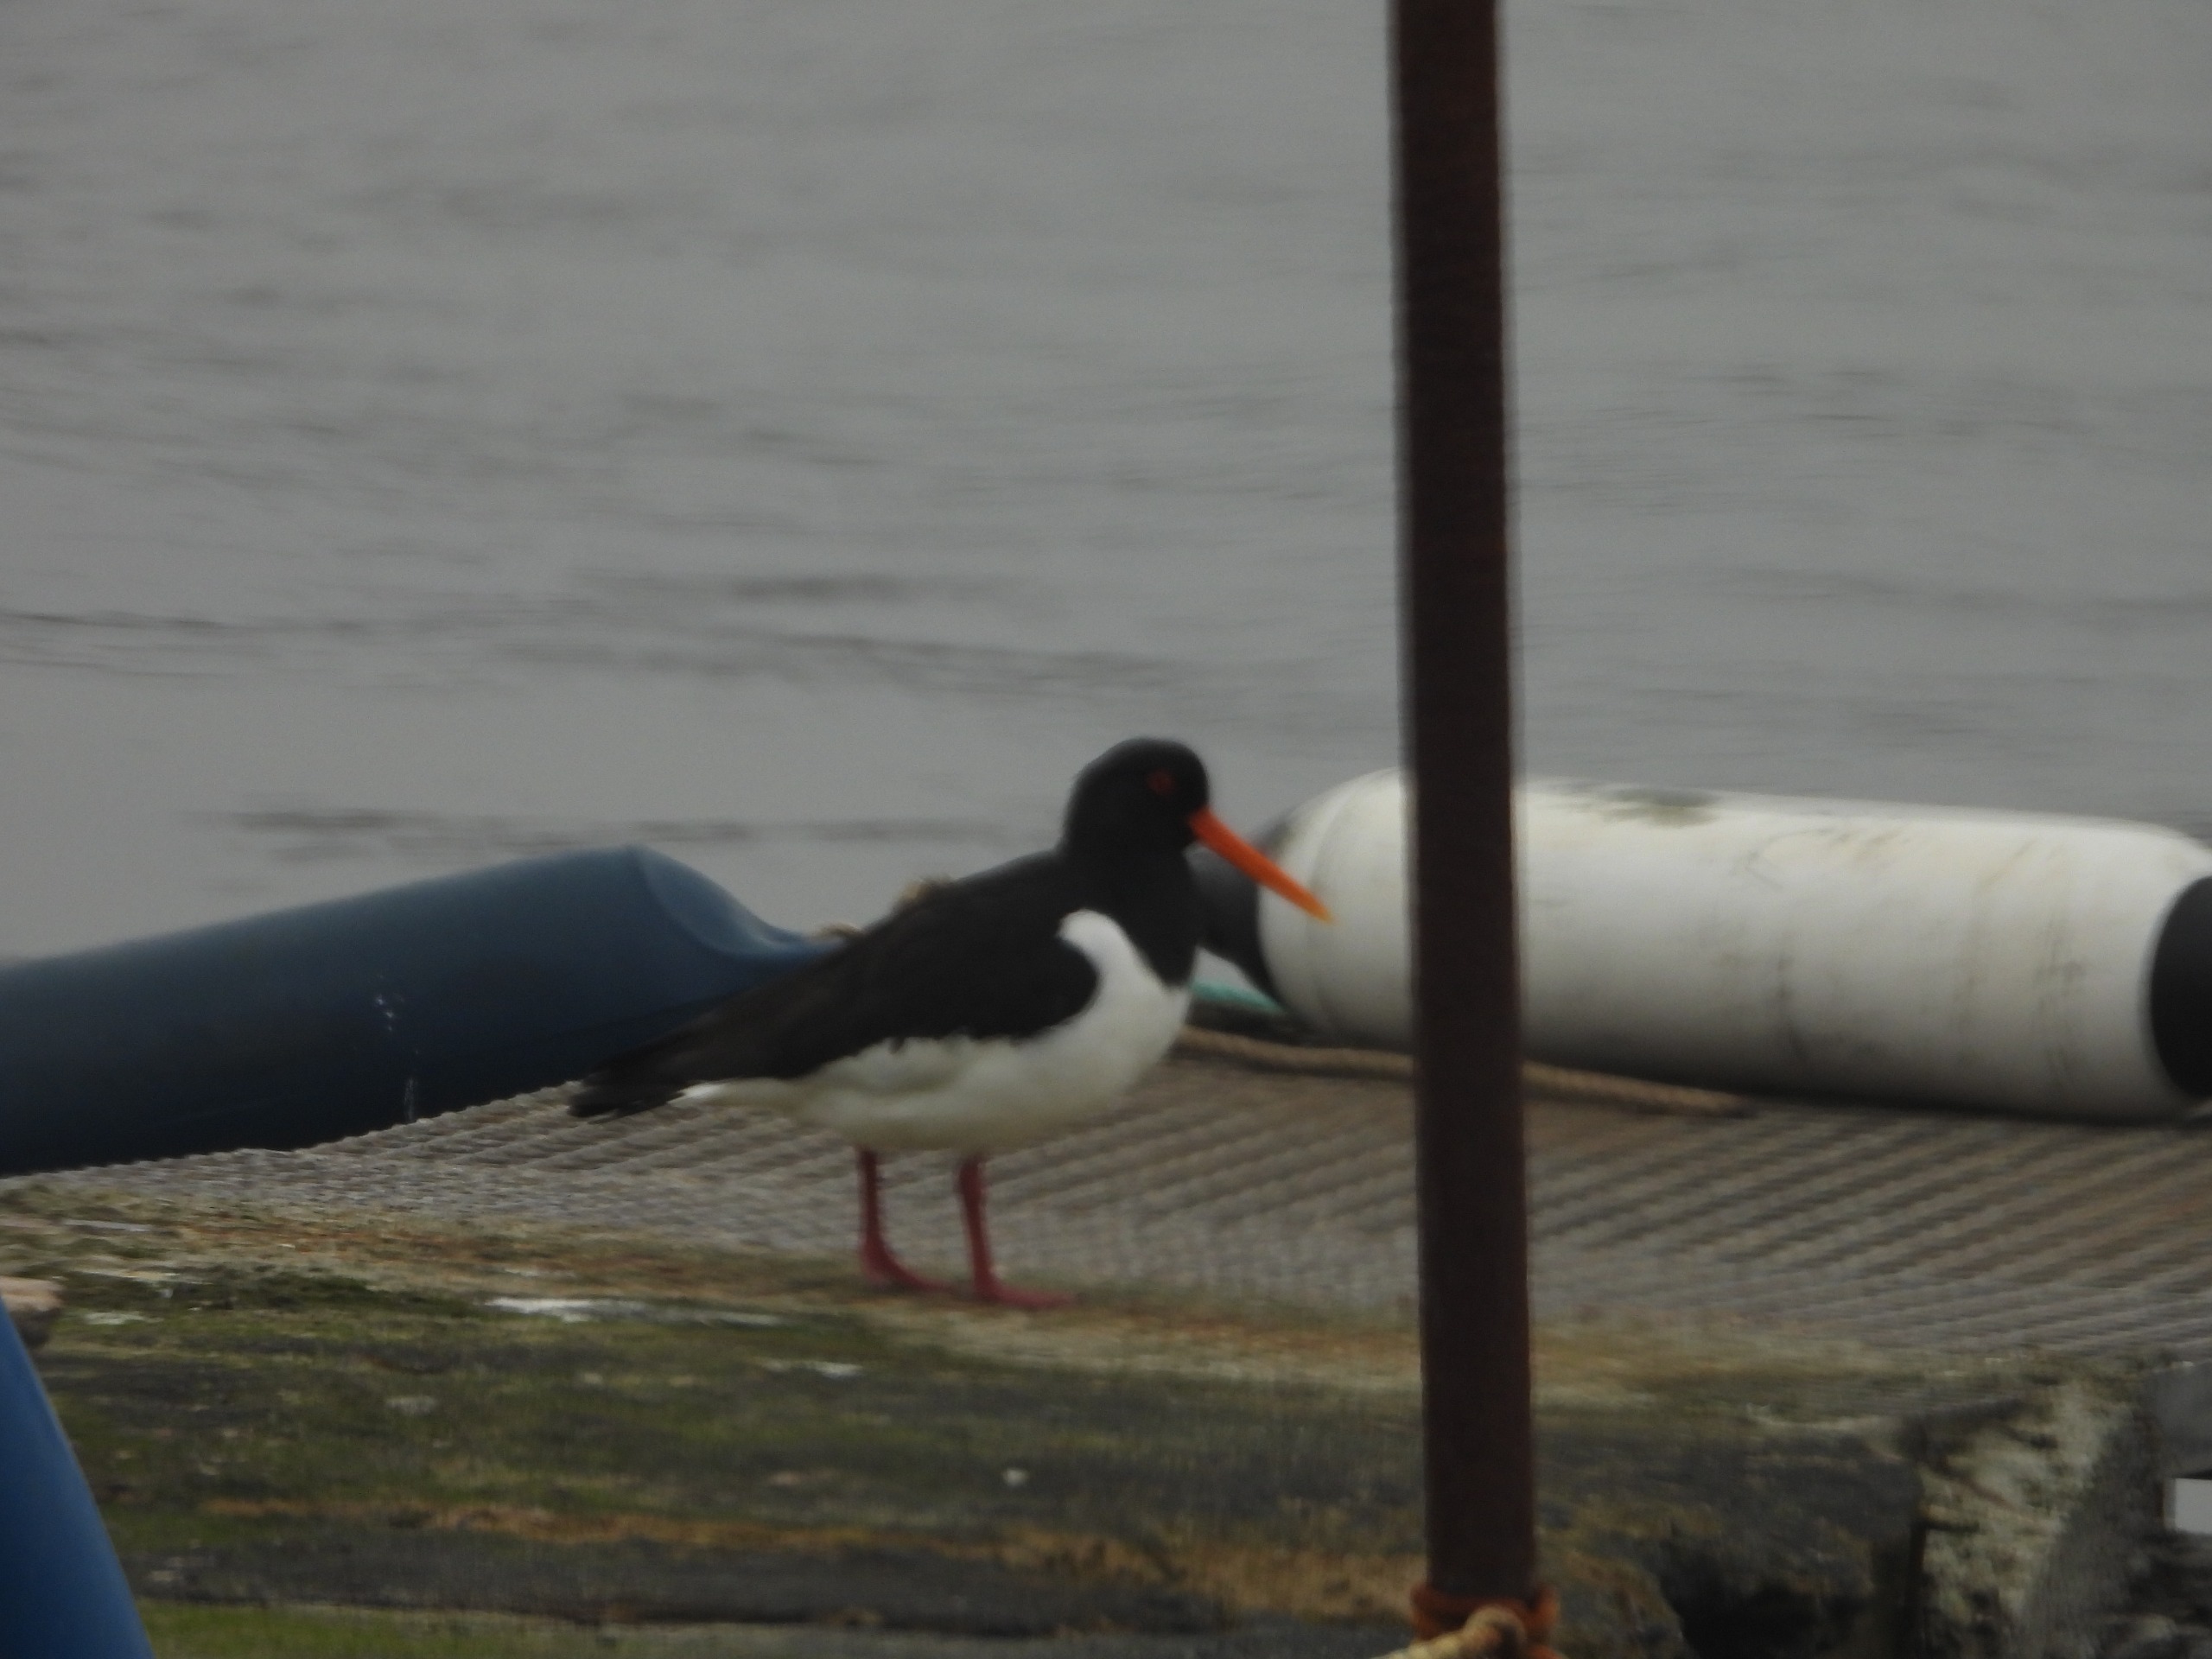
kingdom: Animalia
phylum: Chordata
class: Aves
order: Charadriiformes
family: Haematopodidae
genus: Haematopus
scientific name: Haematopus ostralegus
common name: Strandskade
